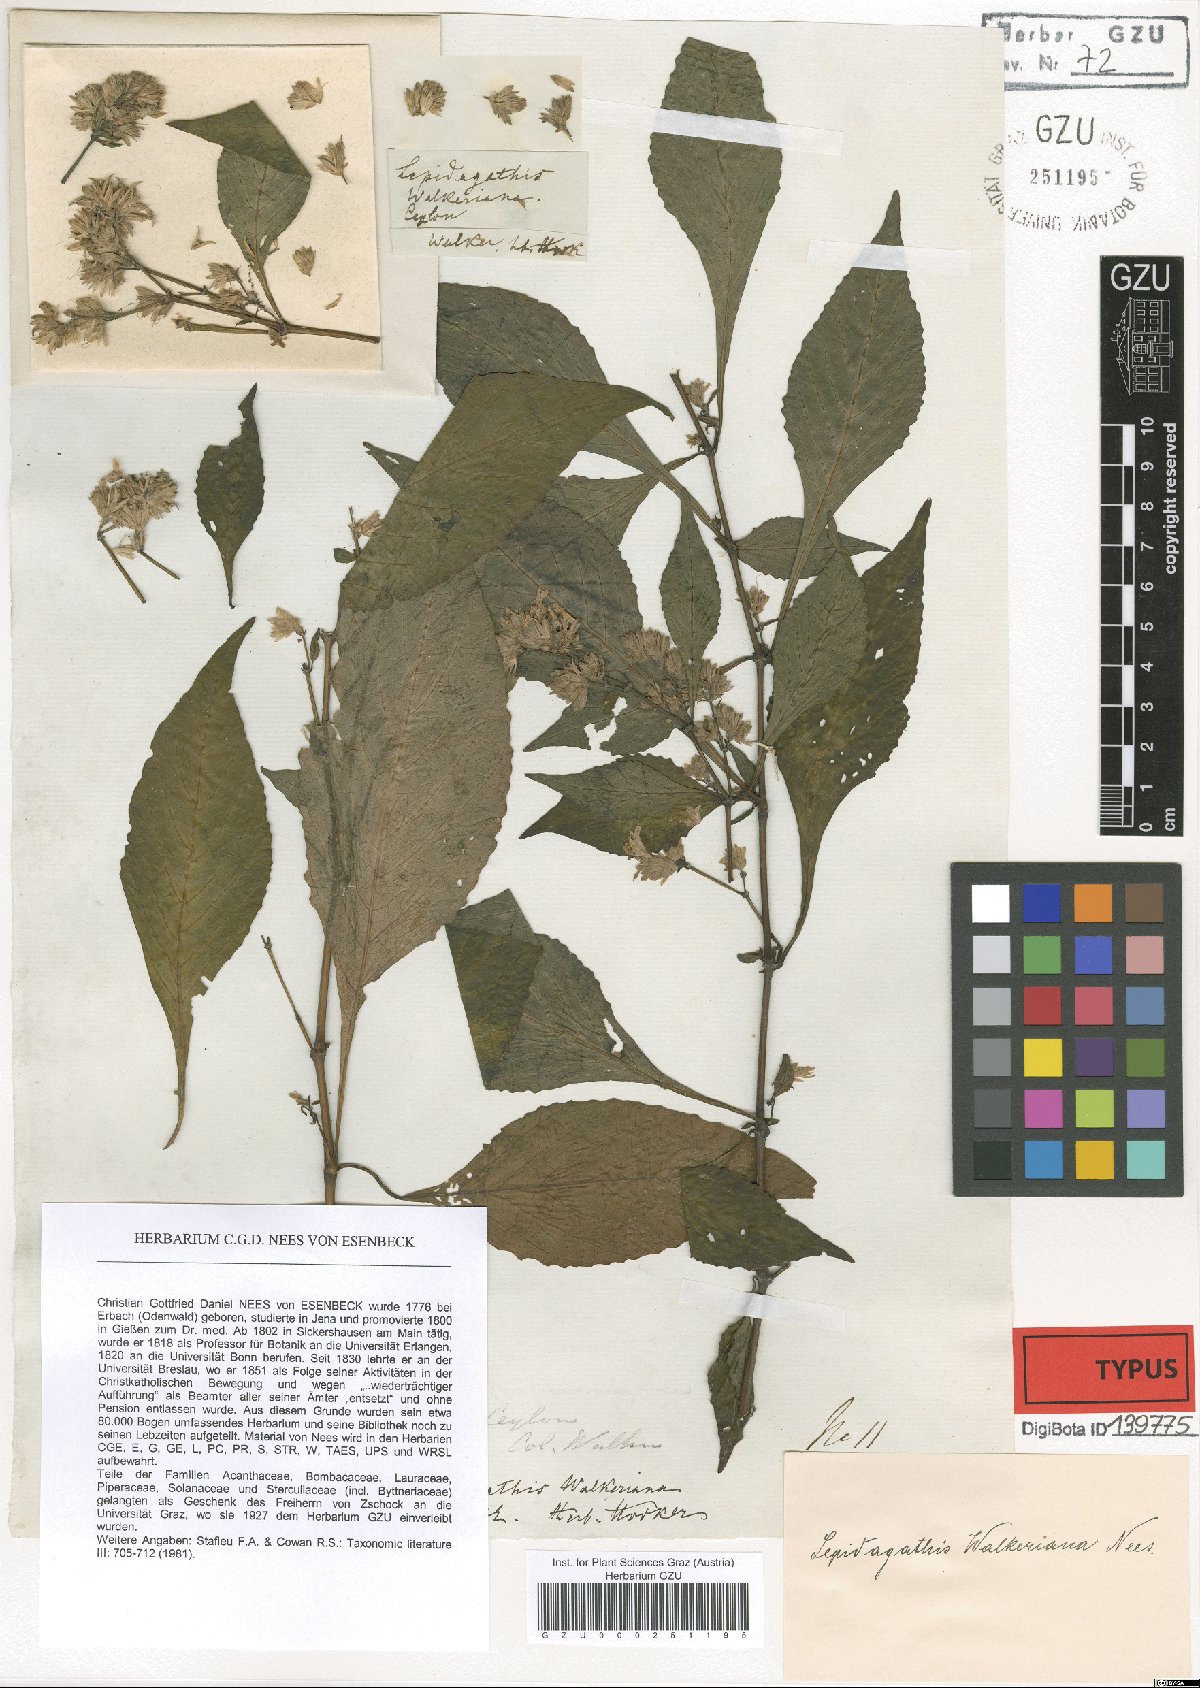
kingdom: Plantae
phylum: Tracheophyta
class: Magnoliopsida
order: Lamiales
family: Acanthaceae
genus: Lepidagathis
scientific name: Lepidagathis walkeriana
